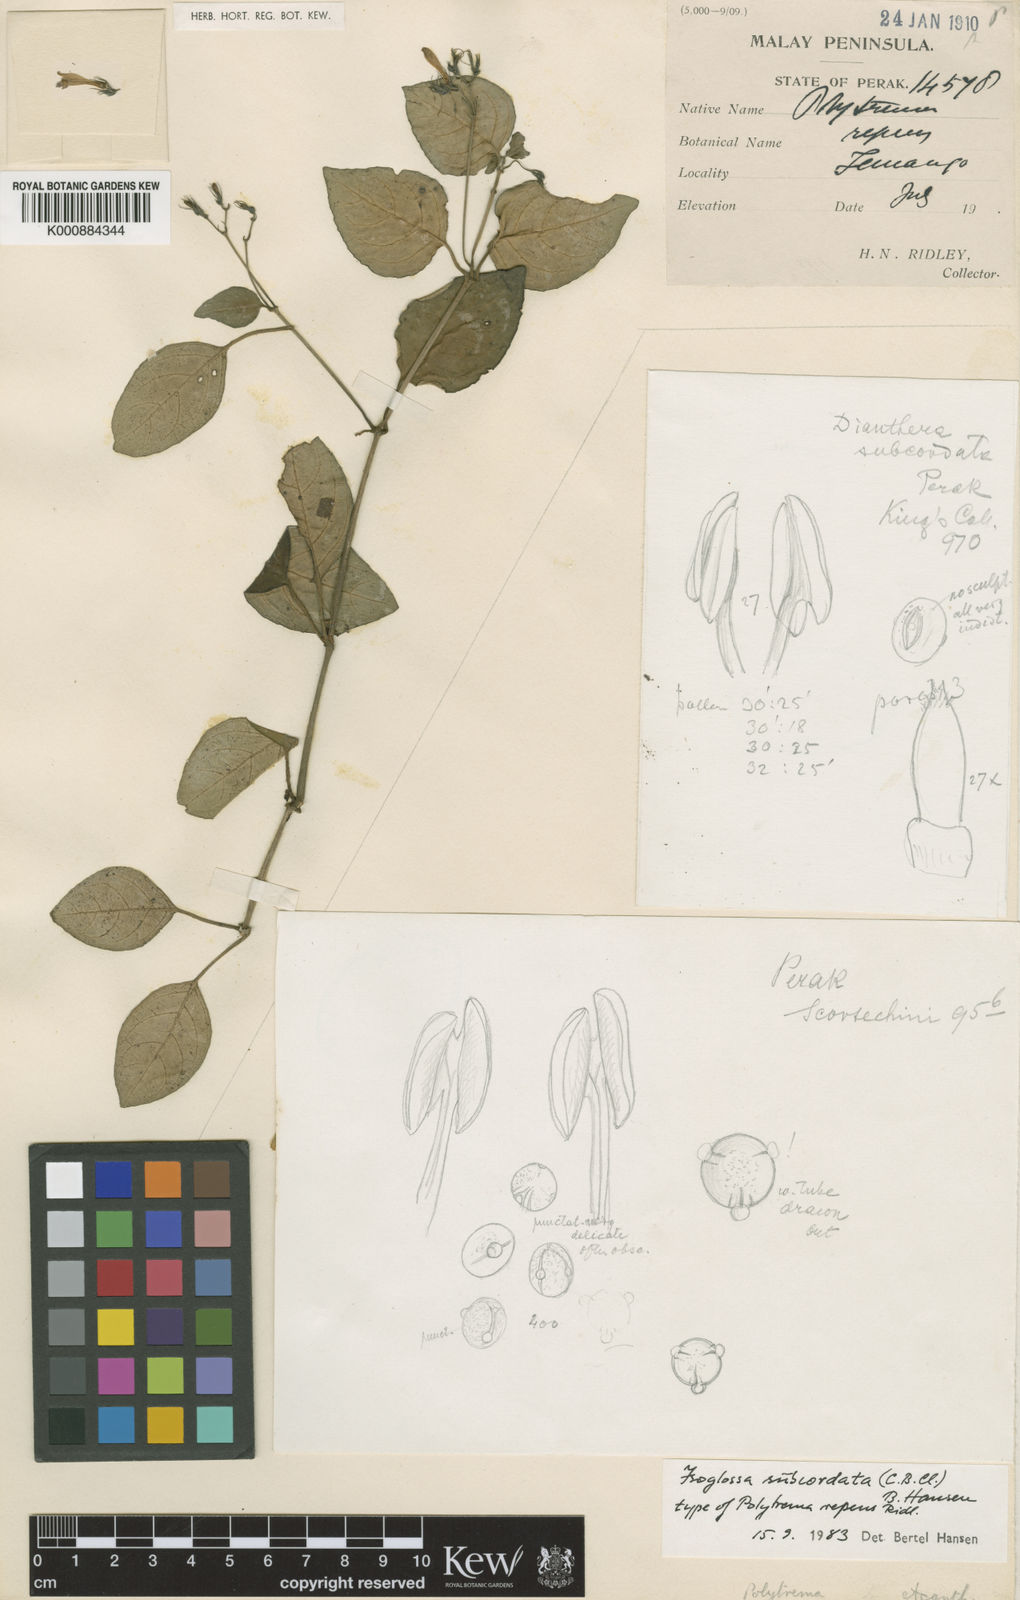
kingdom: Plantae
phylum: Tracheophyta
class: Magnoliopsida
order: Lamiales
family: Acanthaceae
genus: Isoglossa
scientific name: Isoglossa subcordata
